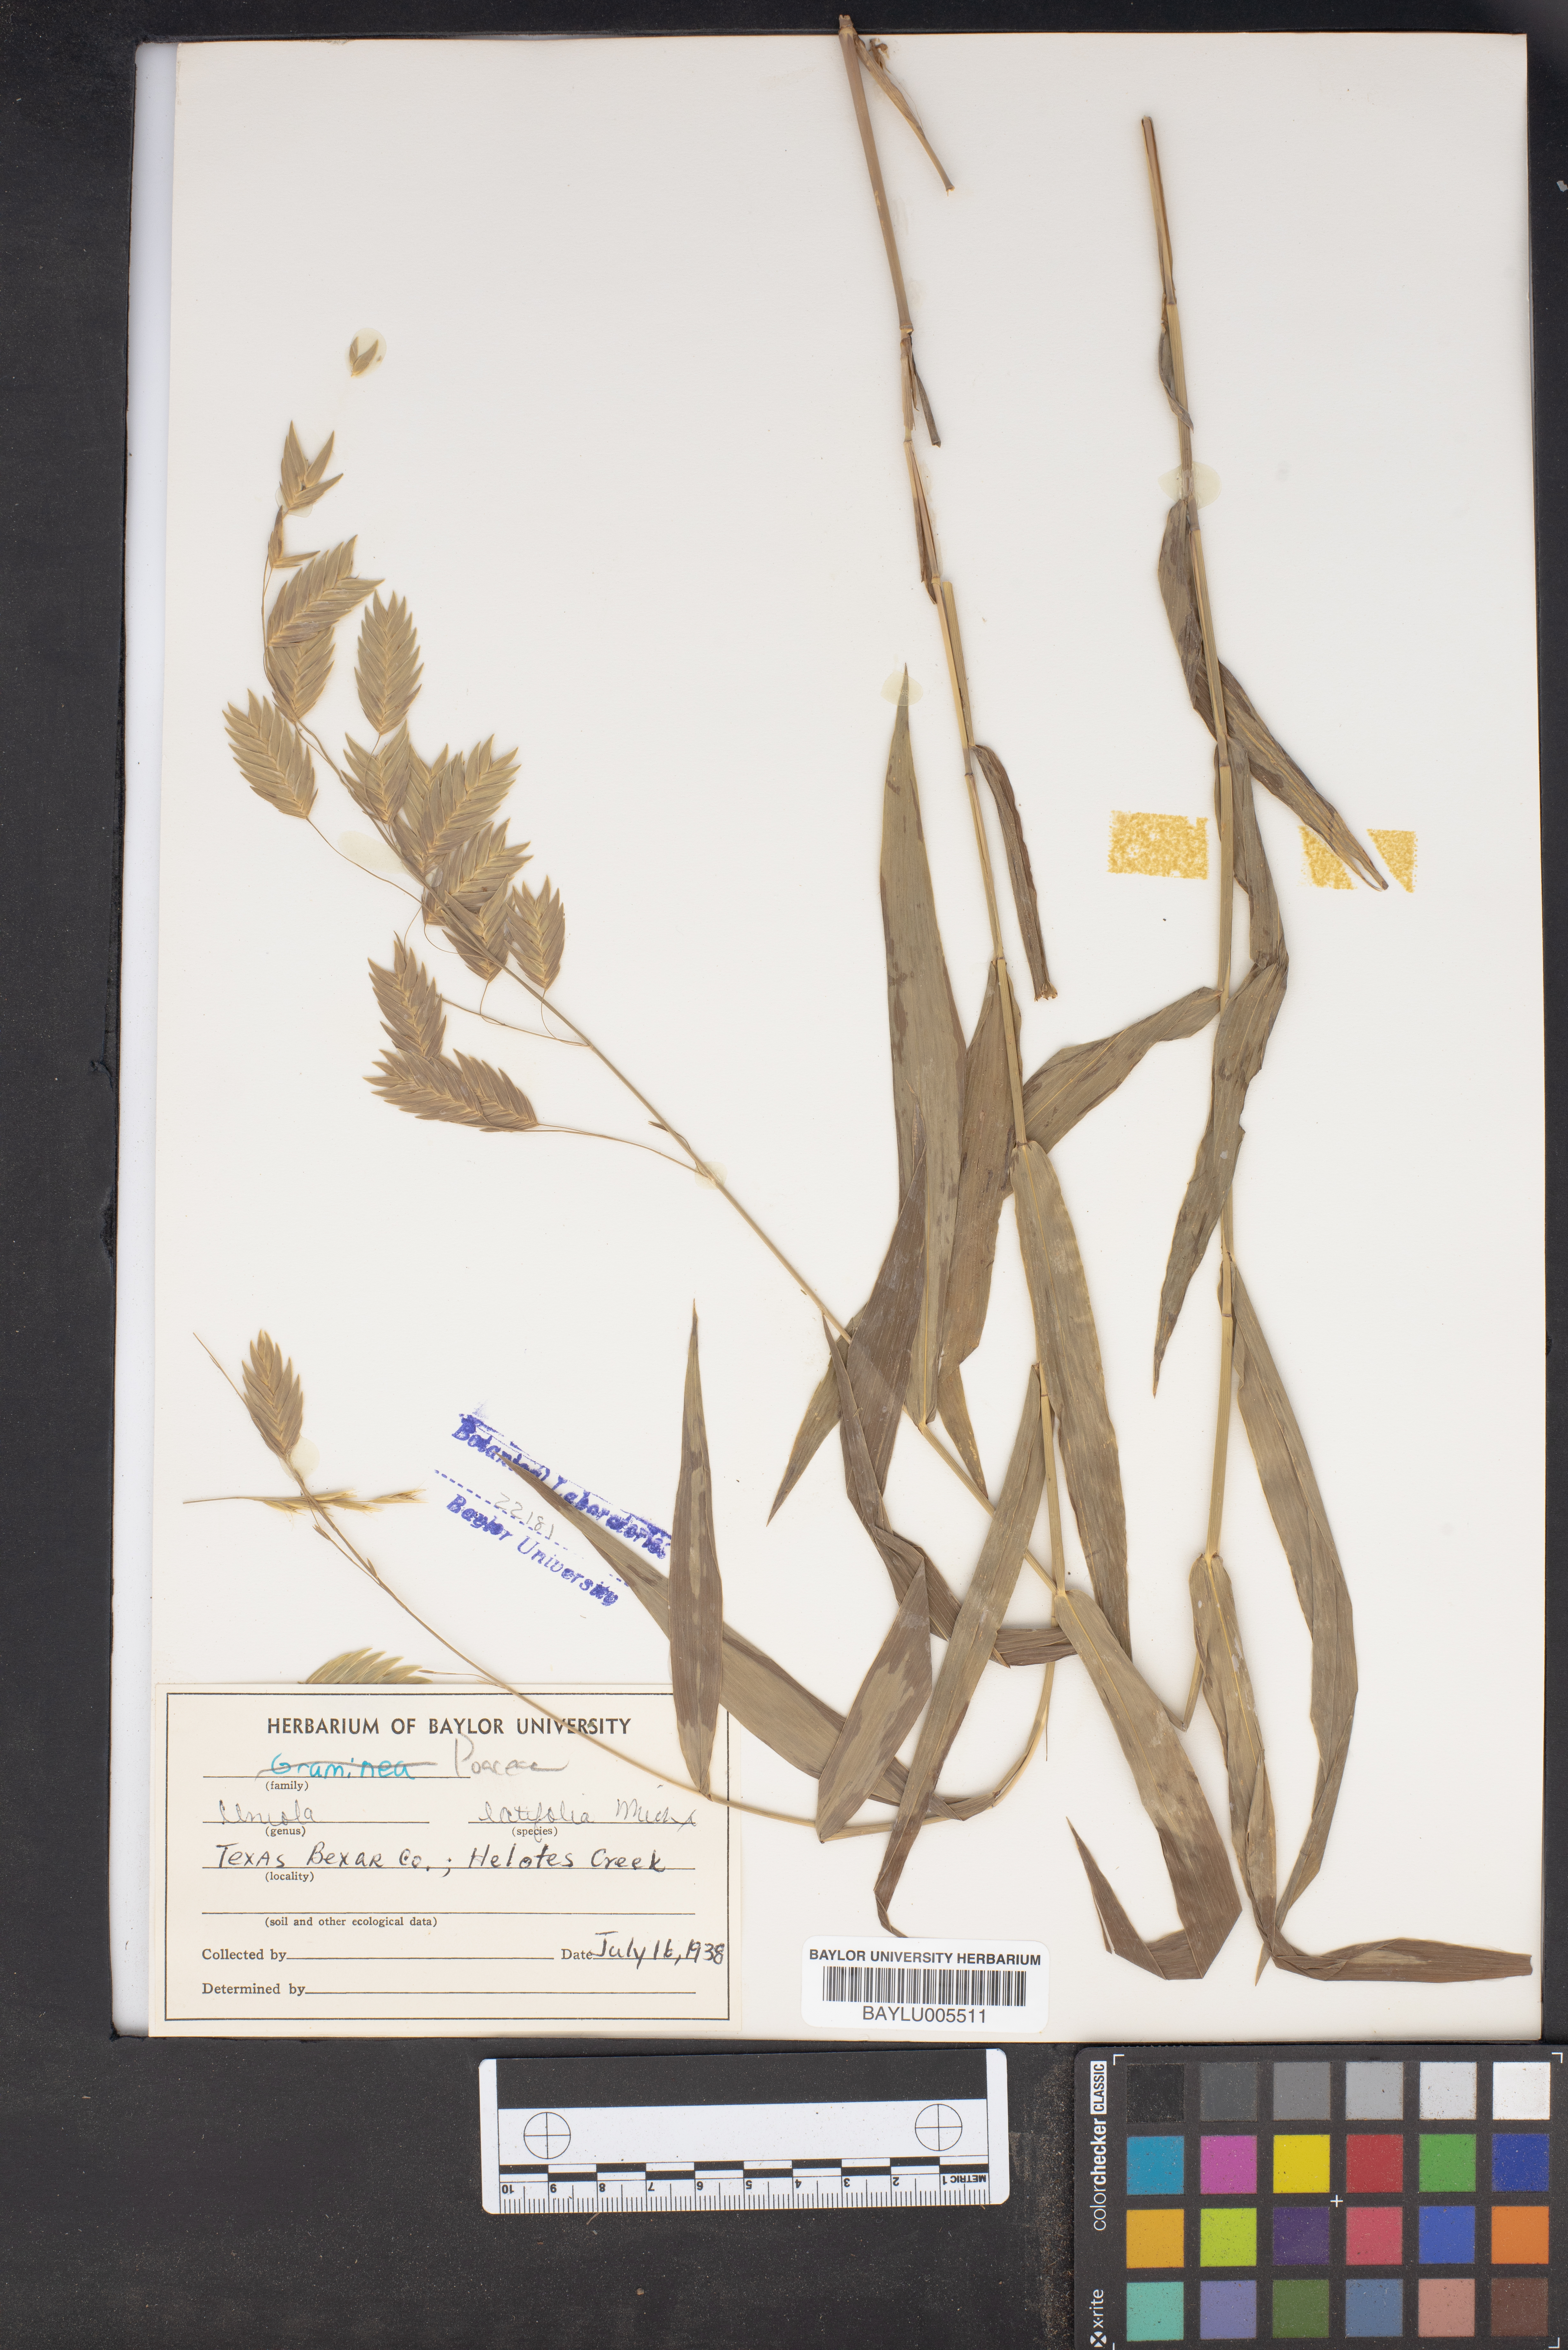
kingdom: Plantae
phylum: Tracheophyta
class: Liliopsida
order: Poales
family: Poaceae
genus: Chasmanthium
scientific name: Chasmanthium latifolium
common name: Broad-leaved chasmanthium
